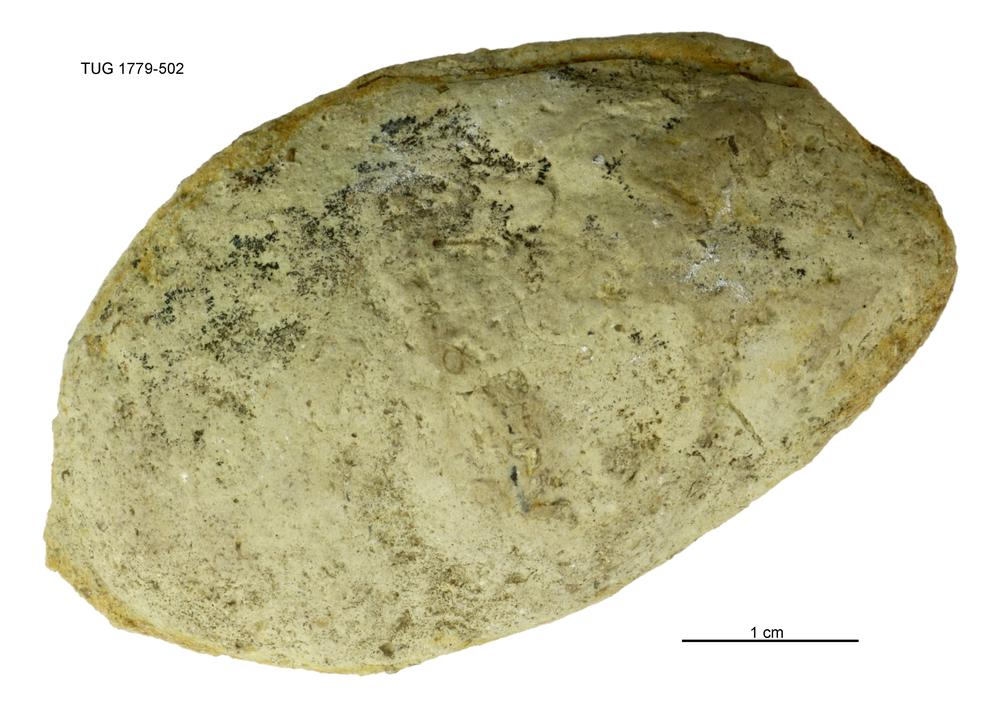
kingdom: Animalia
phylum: Mollusca
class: Bivalvia
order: Modiomorphida
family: Modiomorphidae
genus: Modiolopsis
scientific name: Modiolopsis
